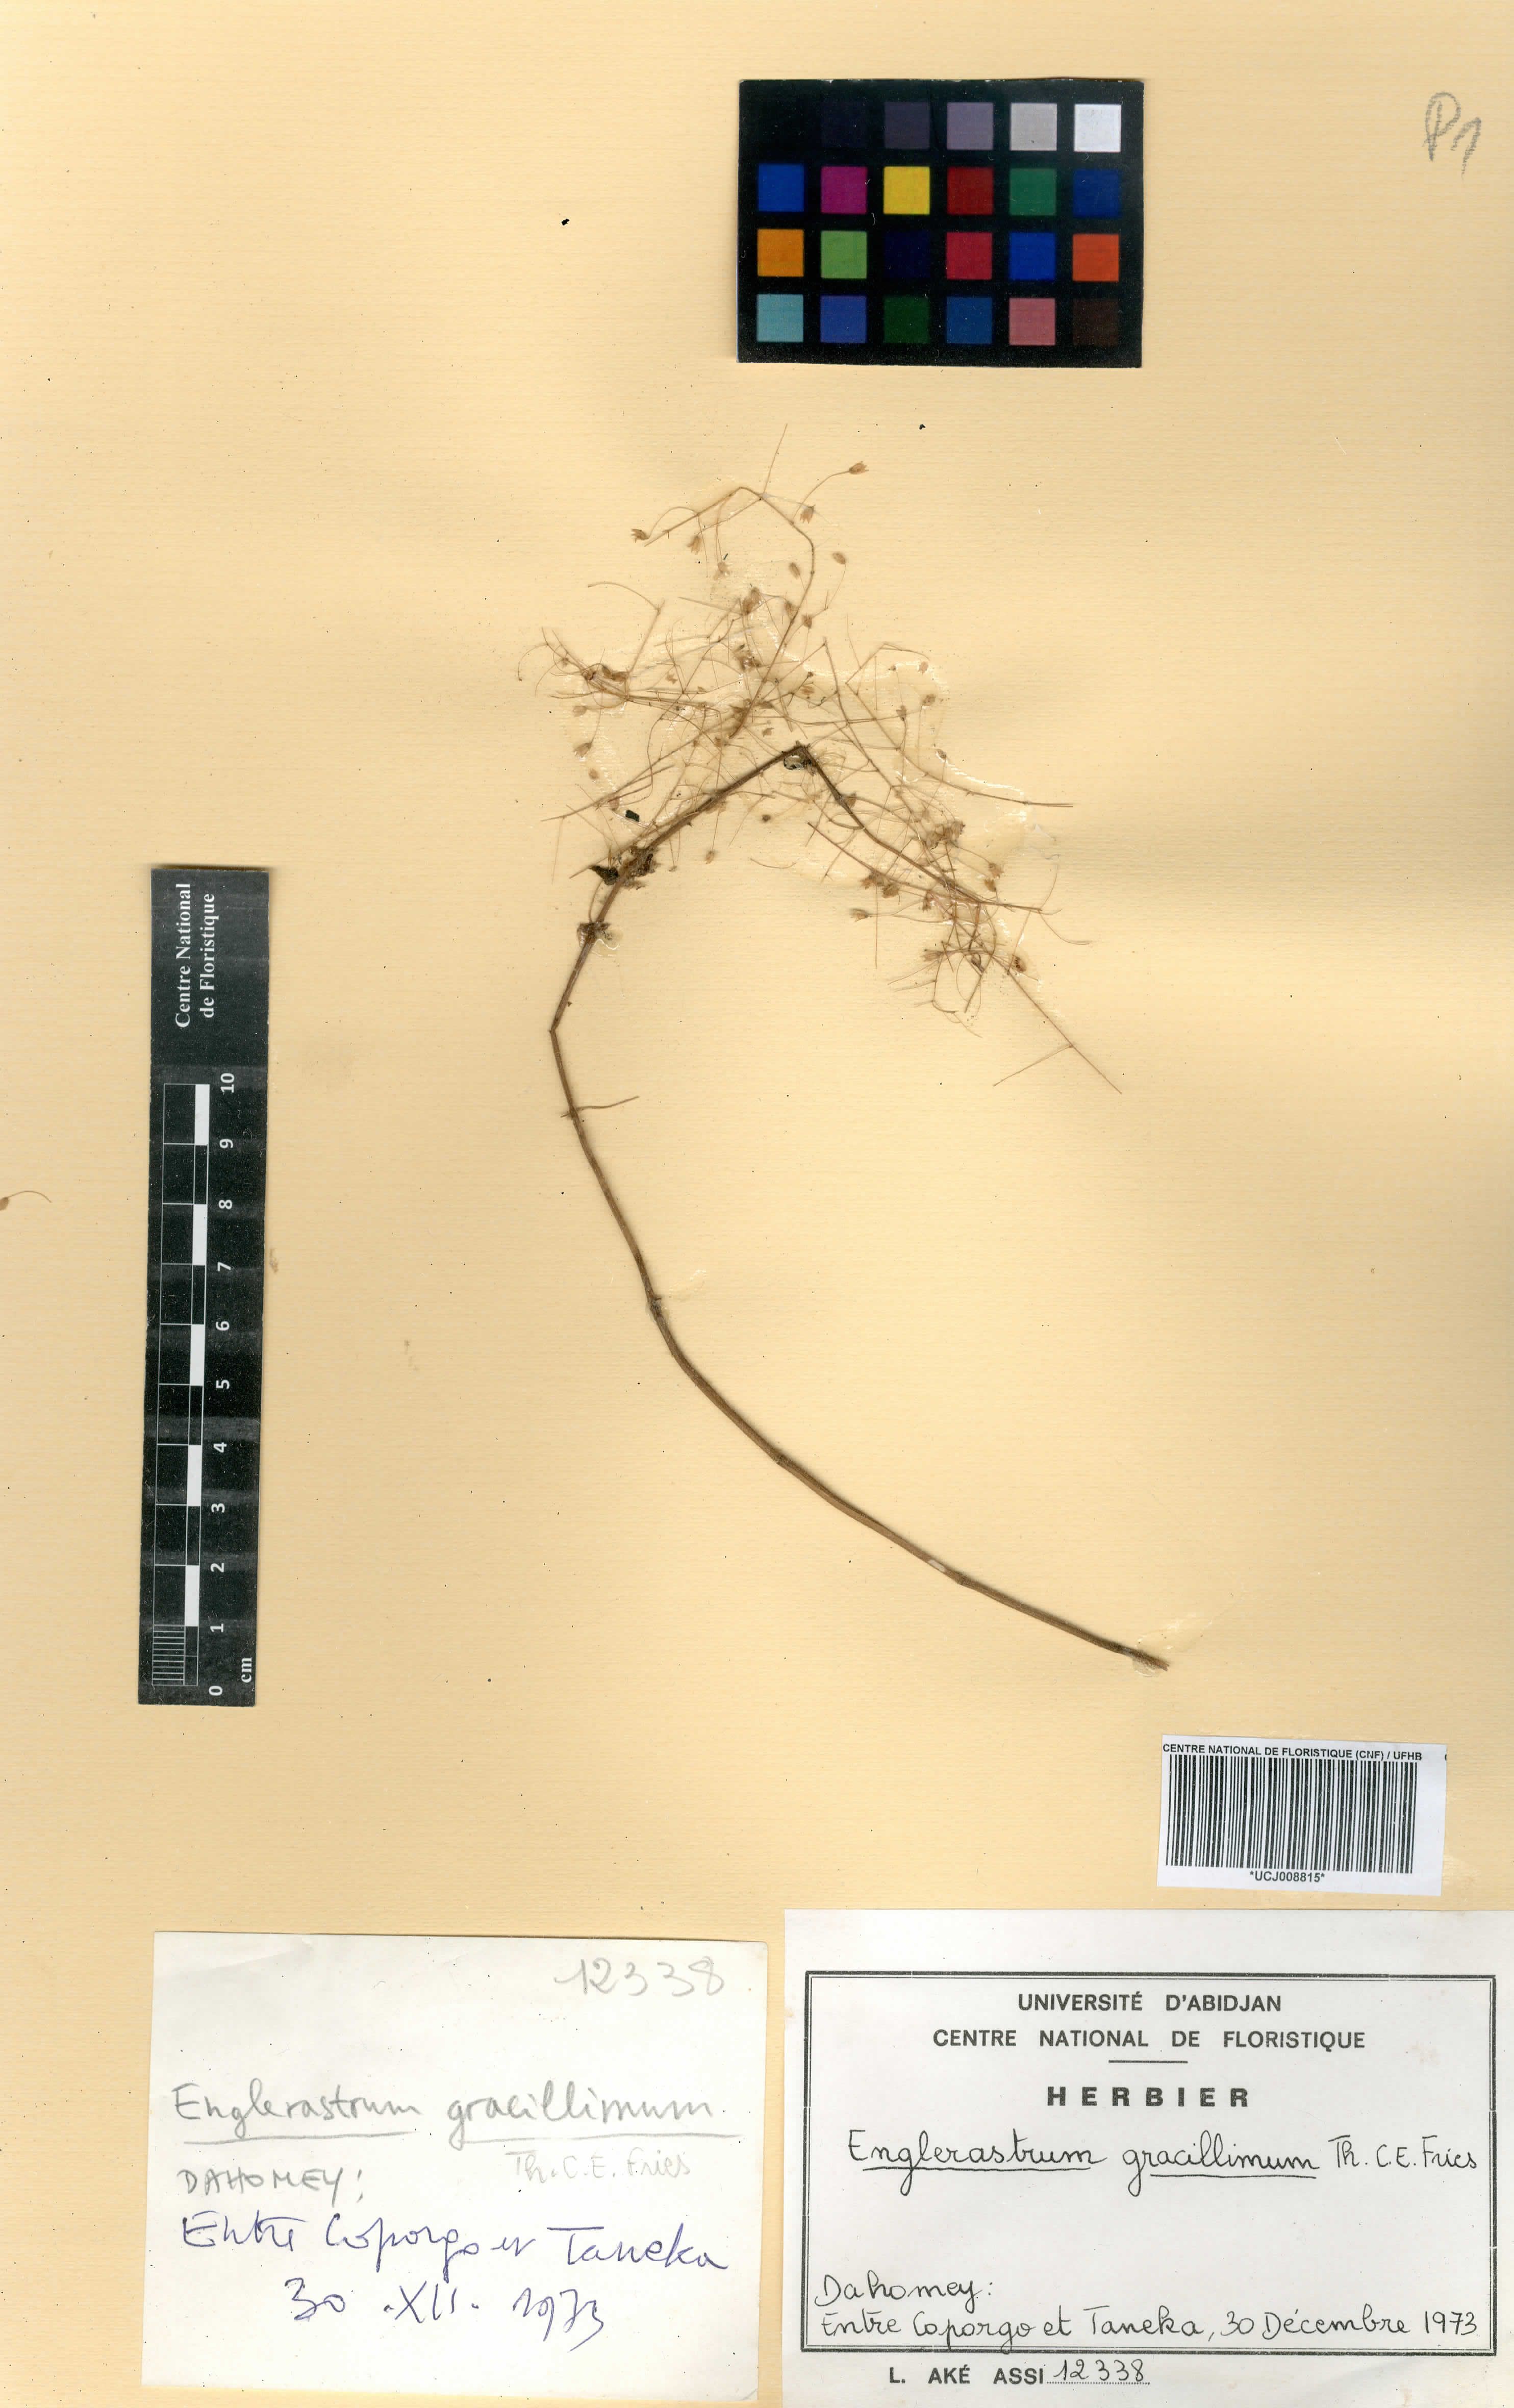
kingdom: Plantae
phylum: Tracheophyta
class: Magnoliopsida
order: Lamiales
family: Lamiaceae
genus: Coleus
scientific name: Coleus gracillimus
